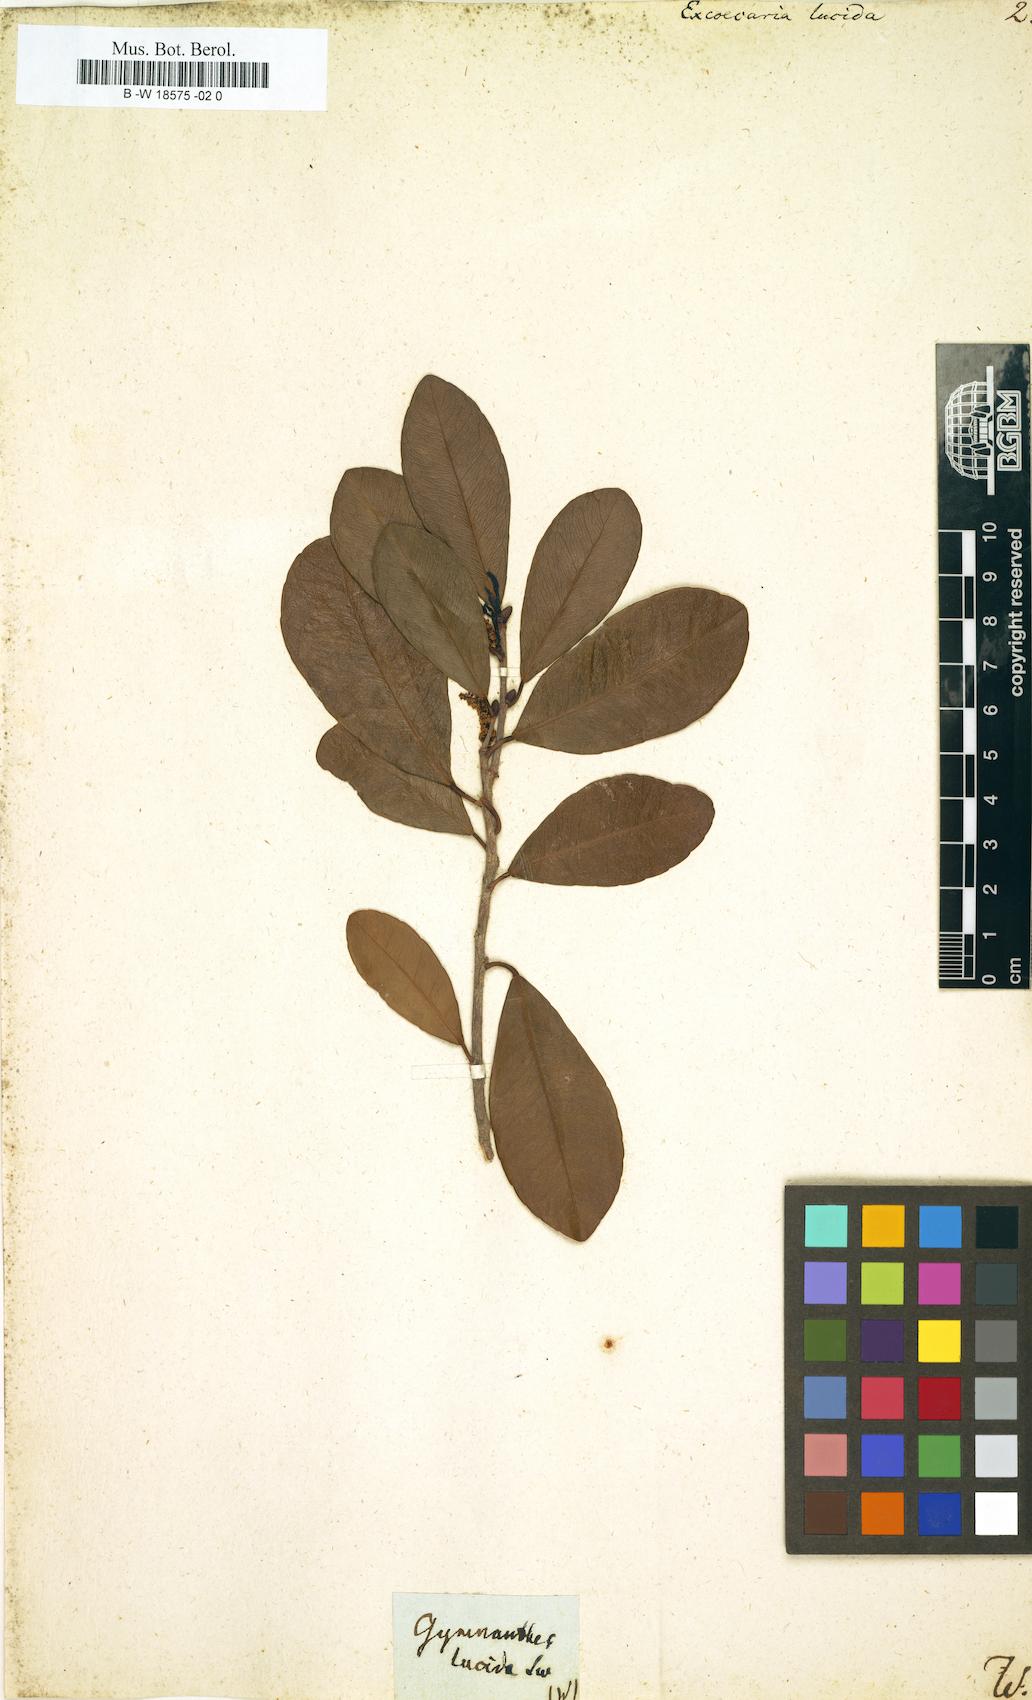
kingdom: Plantae
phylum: Tracheophyta
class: Magnoliopsida
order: Malpighiales
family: Euphorbiaceae
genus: Gymnanthes
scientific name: Gymnanthes lucida
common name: Oysterwood
